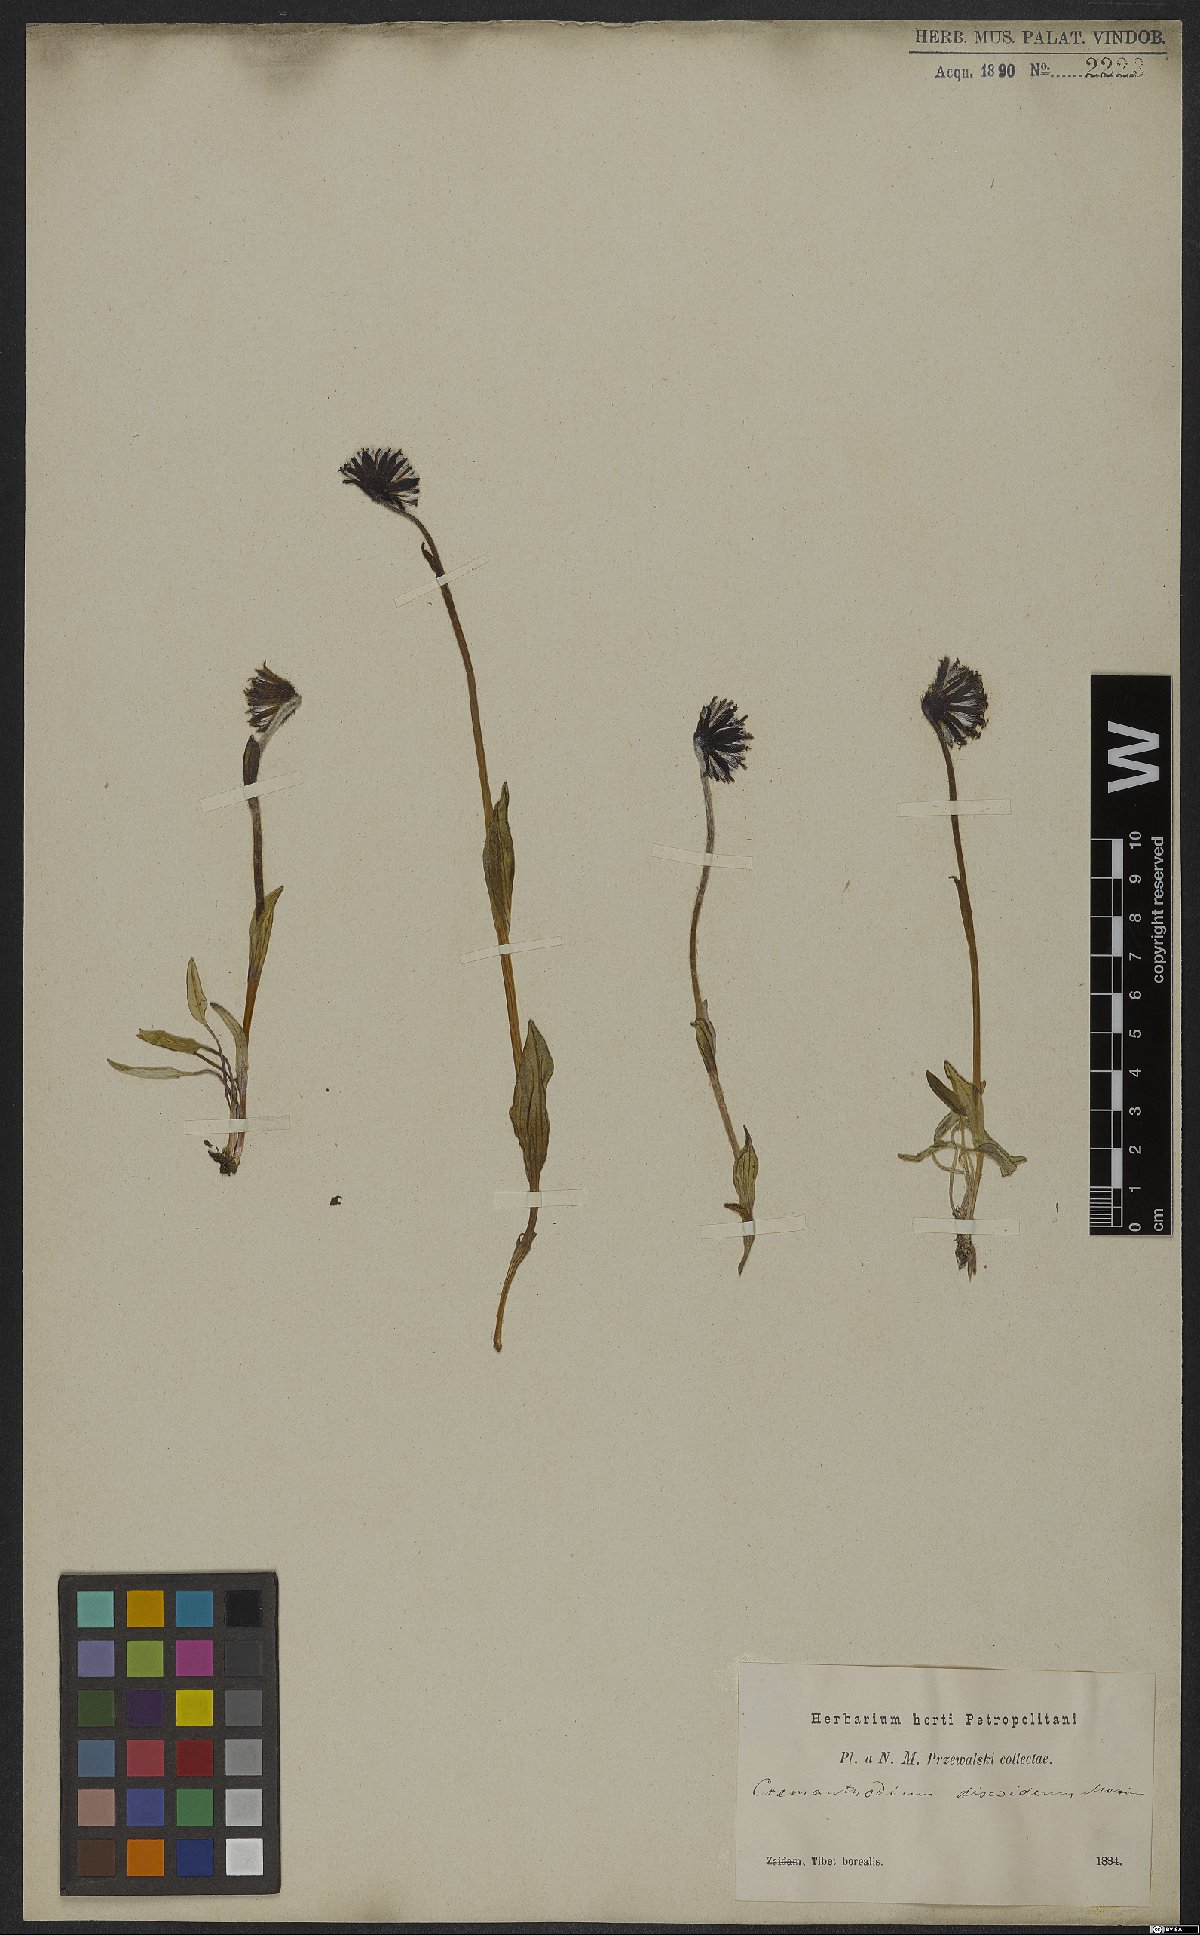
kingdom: Plantae
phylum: Tracheophyta
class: Magnoliopsida
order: Asterales
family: Asteraceae
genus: Cremanthodium
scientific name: Cremanthodium discoideum
